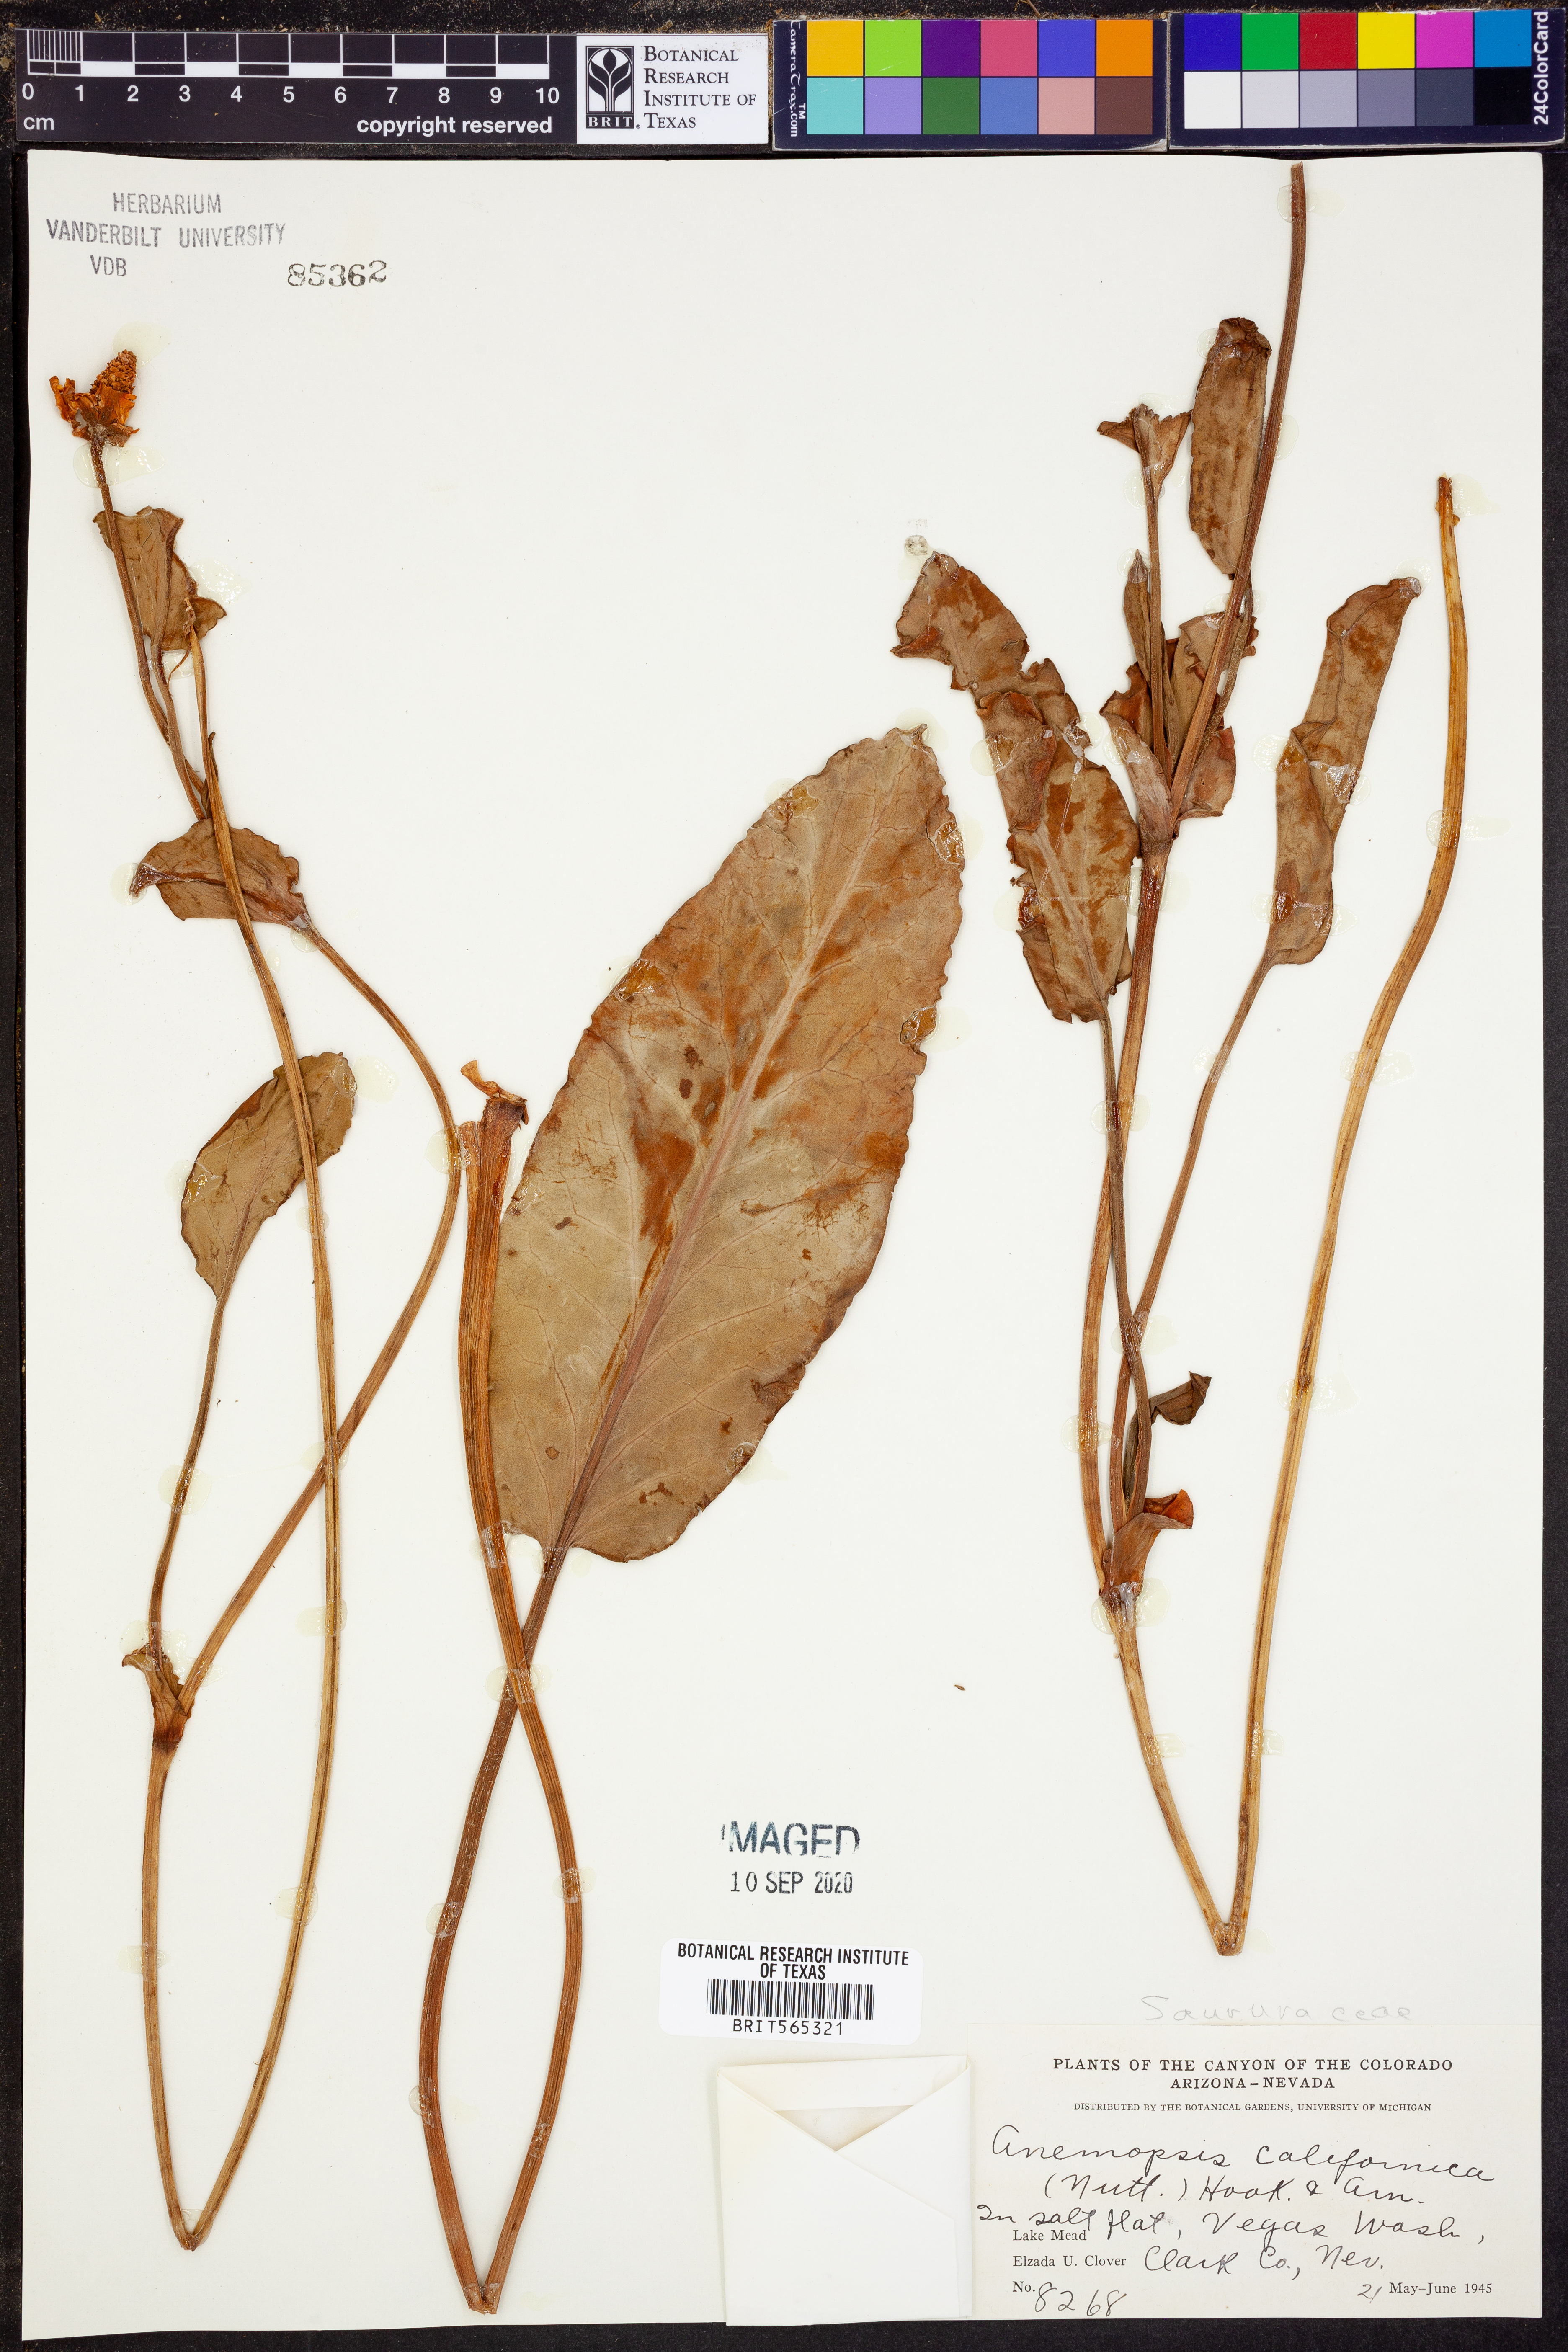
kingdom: Plantae
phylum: Tracheophyta
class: Magnoliopsida
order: Piperales
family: Saururaceae
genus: Anemopsis
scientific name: Anemopsis californica
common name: Apache-beads
